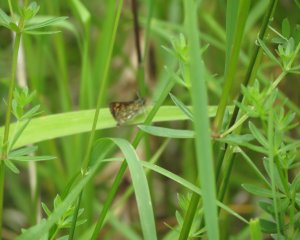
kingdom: Animalia
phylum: Arthropoda
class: Insecta
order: Lepidoptera
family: Hesperiidae
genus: Carterocephalus
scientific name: Carterocephalus palaemon
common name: Chequered Skipper
